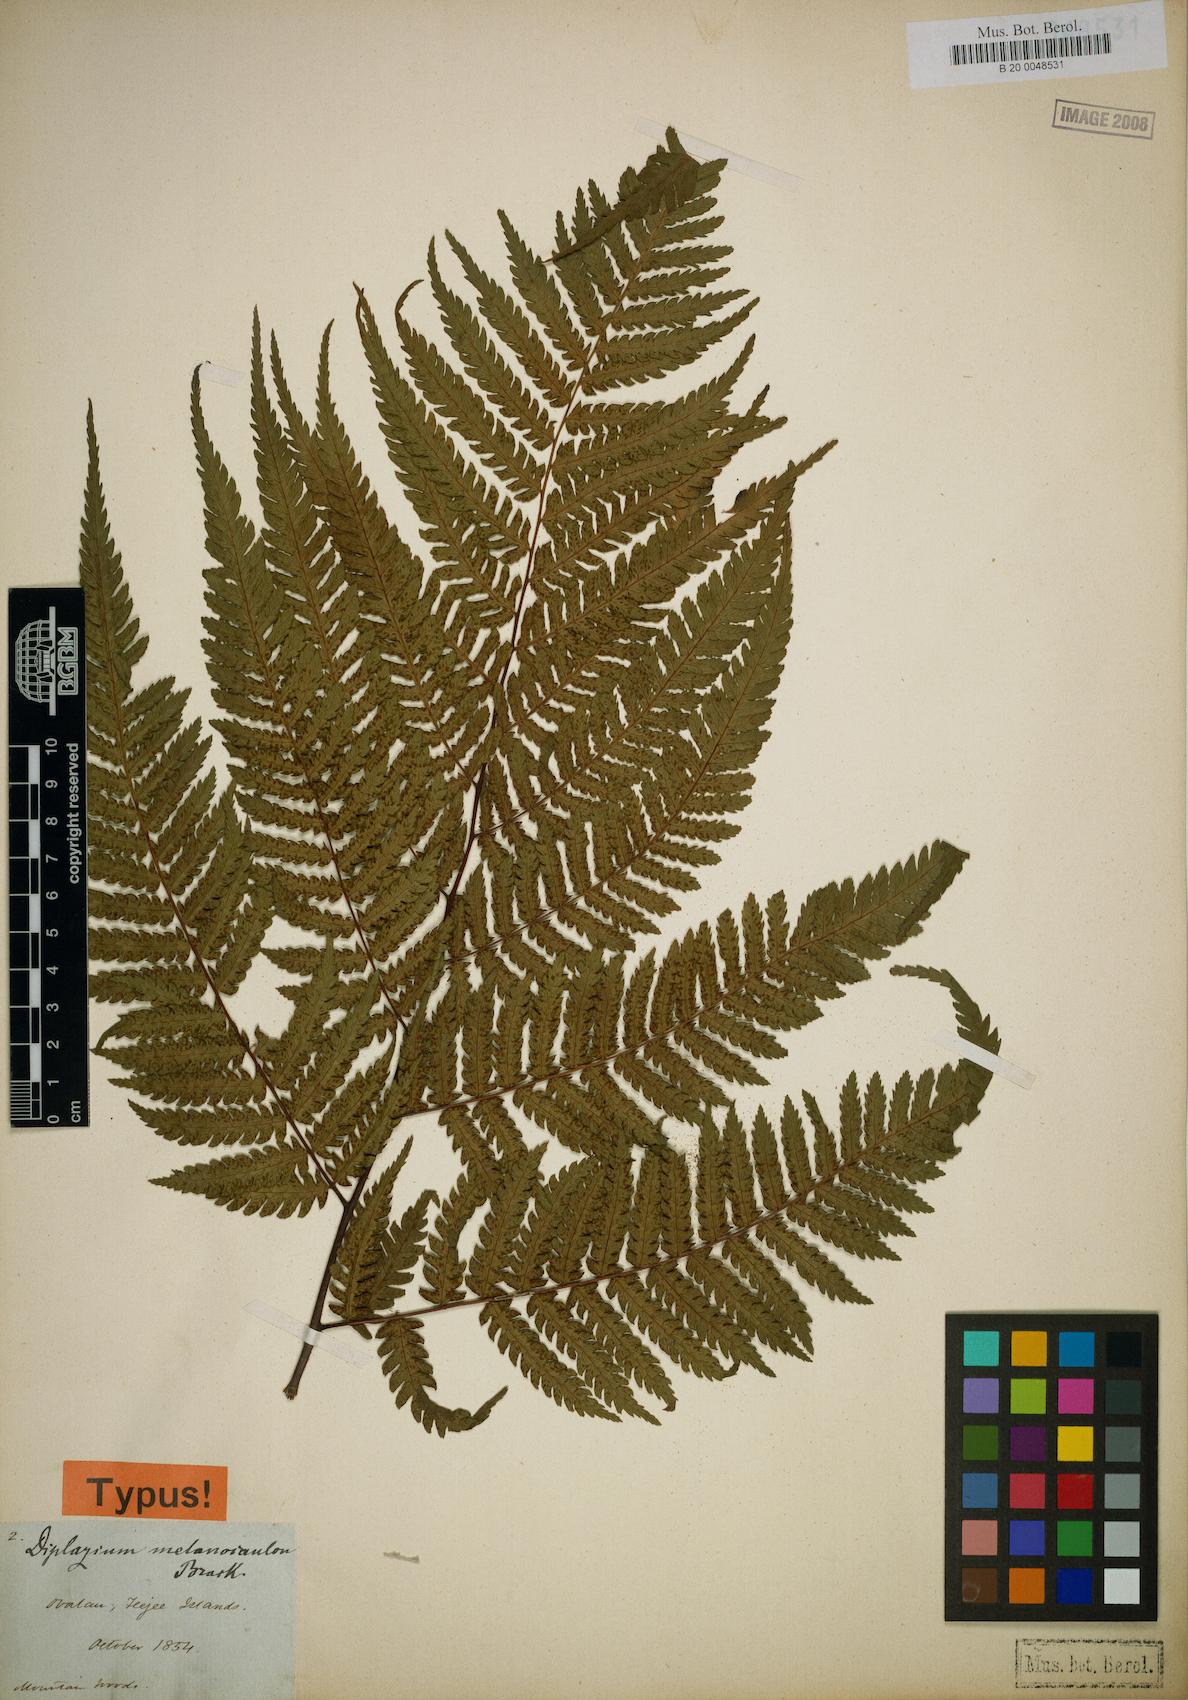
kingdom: Plantae
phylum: Tracheophyta
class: Polypodiopsida
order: Polypodiales
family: Athyriaceae
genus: Diplazium
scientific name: Diplazium melanocaulon
